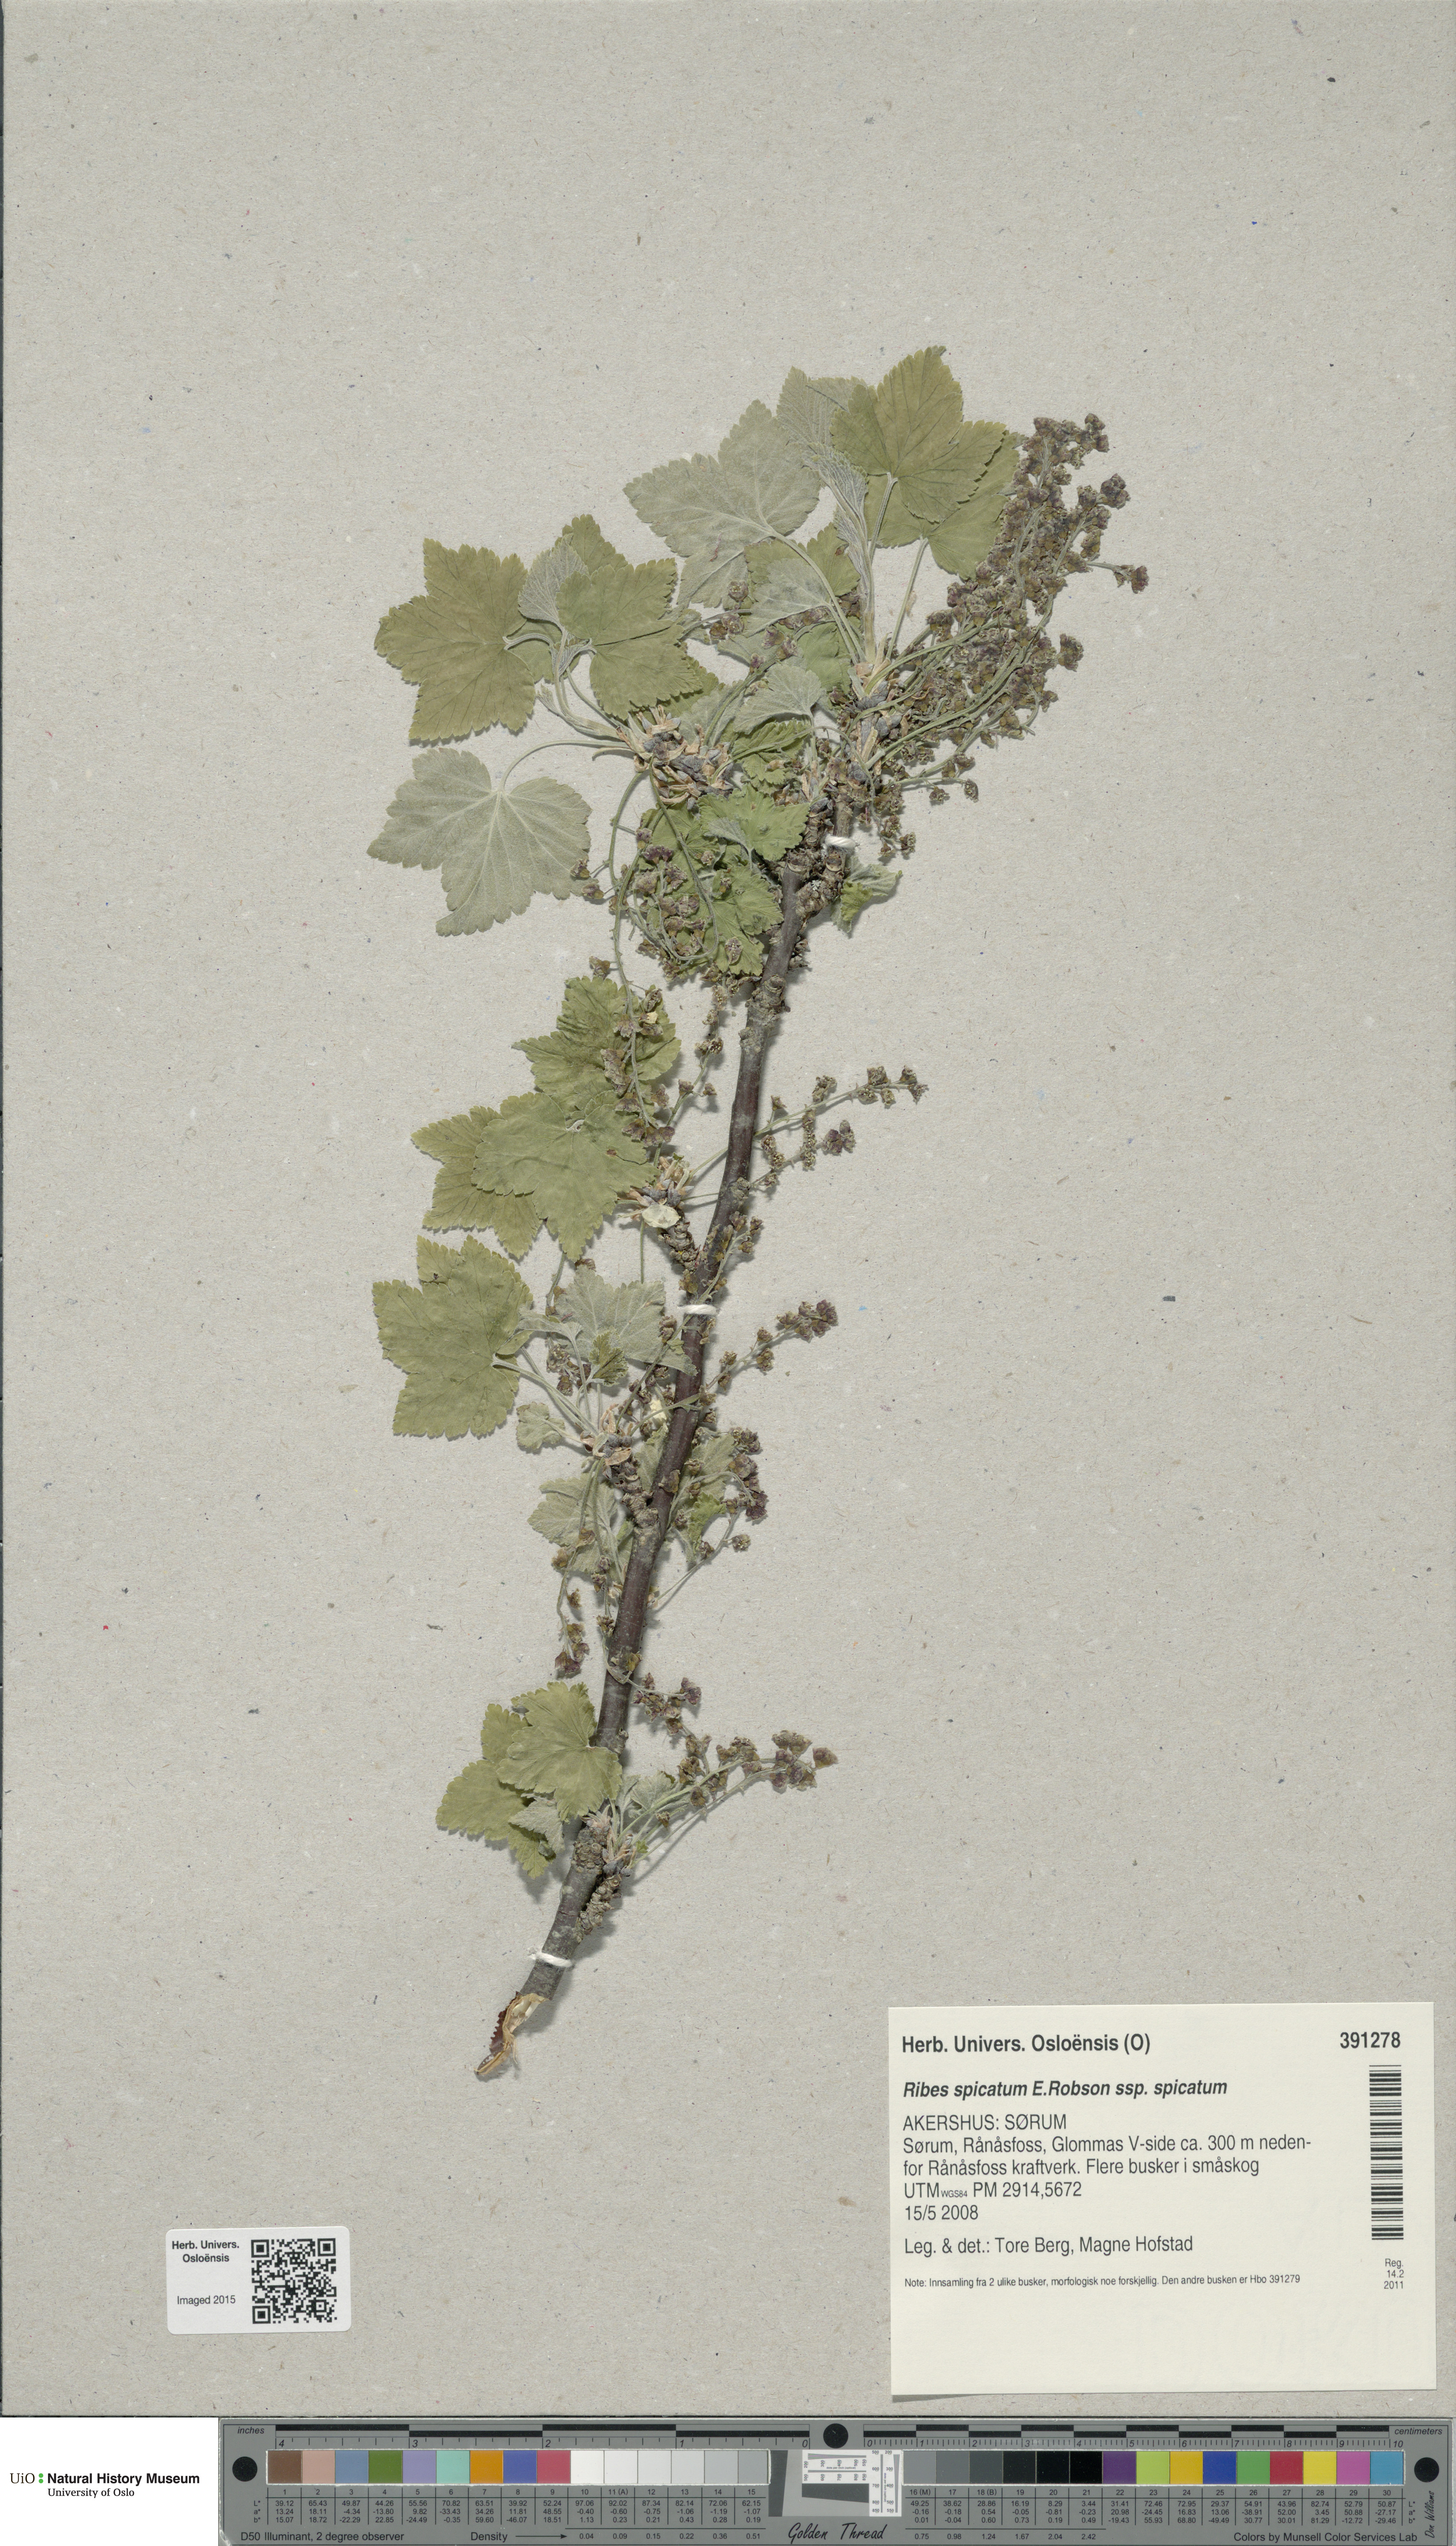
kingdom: Plantae
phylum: Tracheophyta
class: Magnoliopsida
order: Saxifragales
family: Grossulariaceae
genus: Ribes
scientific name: Ribes spicatum
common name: Downy currant
